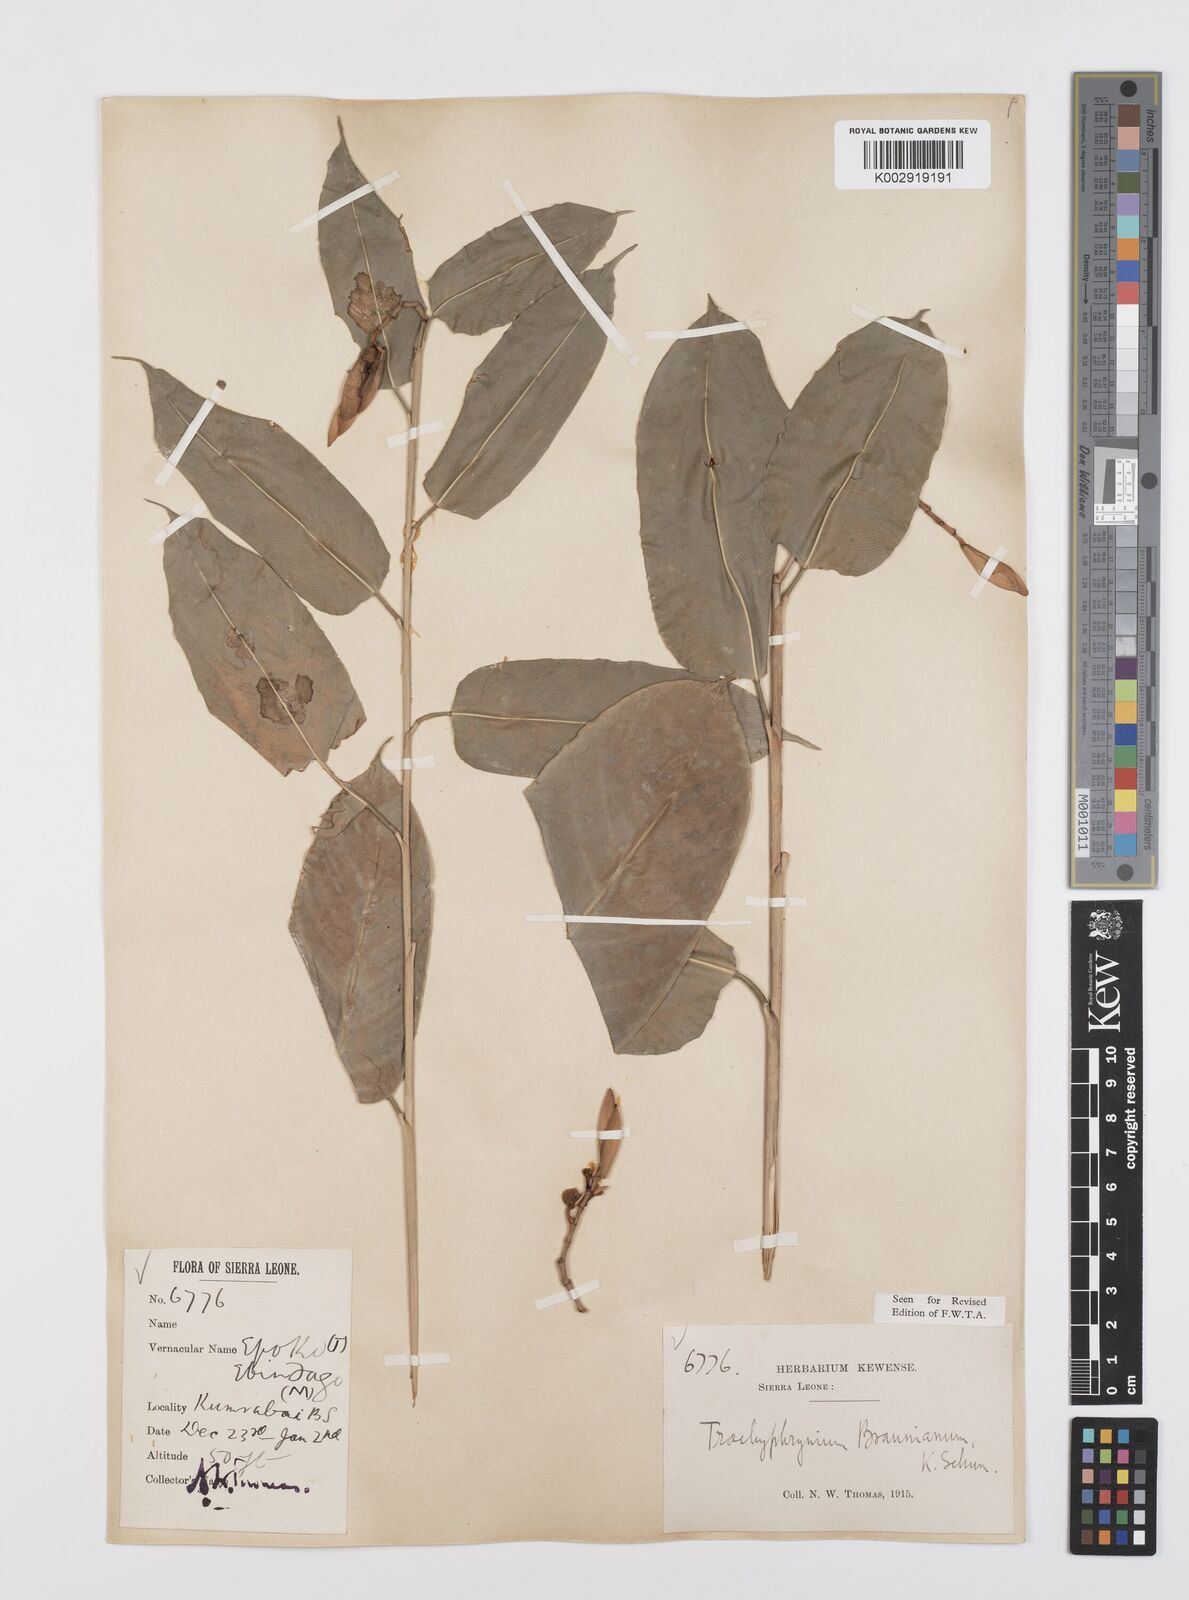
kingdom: Plantae
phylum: Tracheophyta
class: Liliopsida
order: Zingiberales
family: Marantaceae
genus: Hypselodelphys
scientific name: Hypselodelphys poggeana
